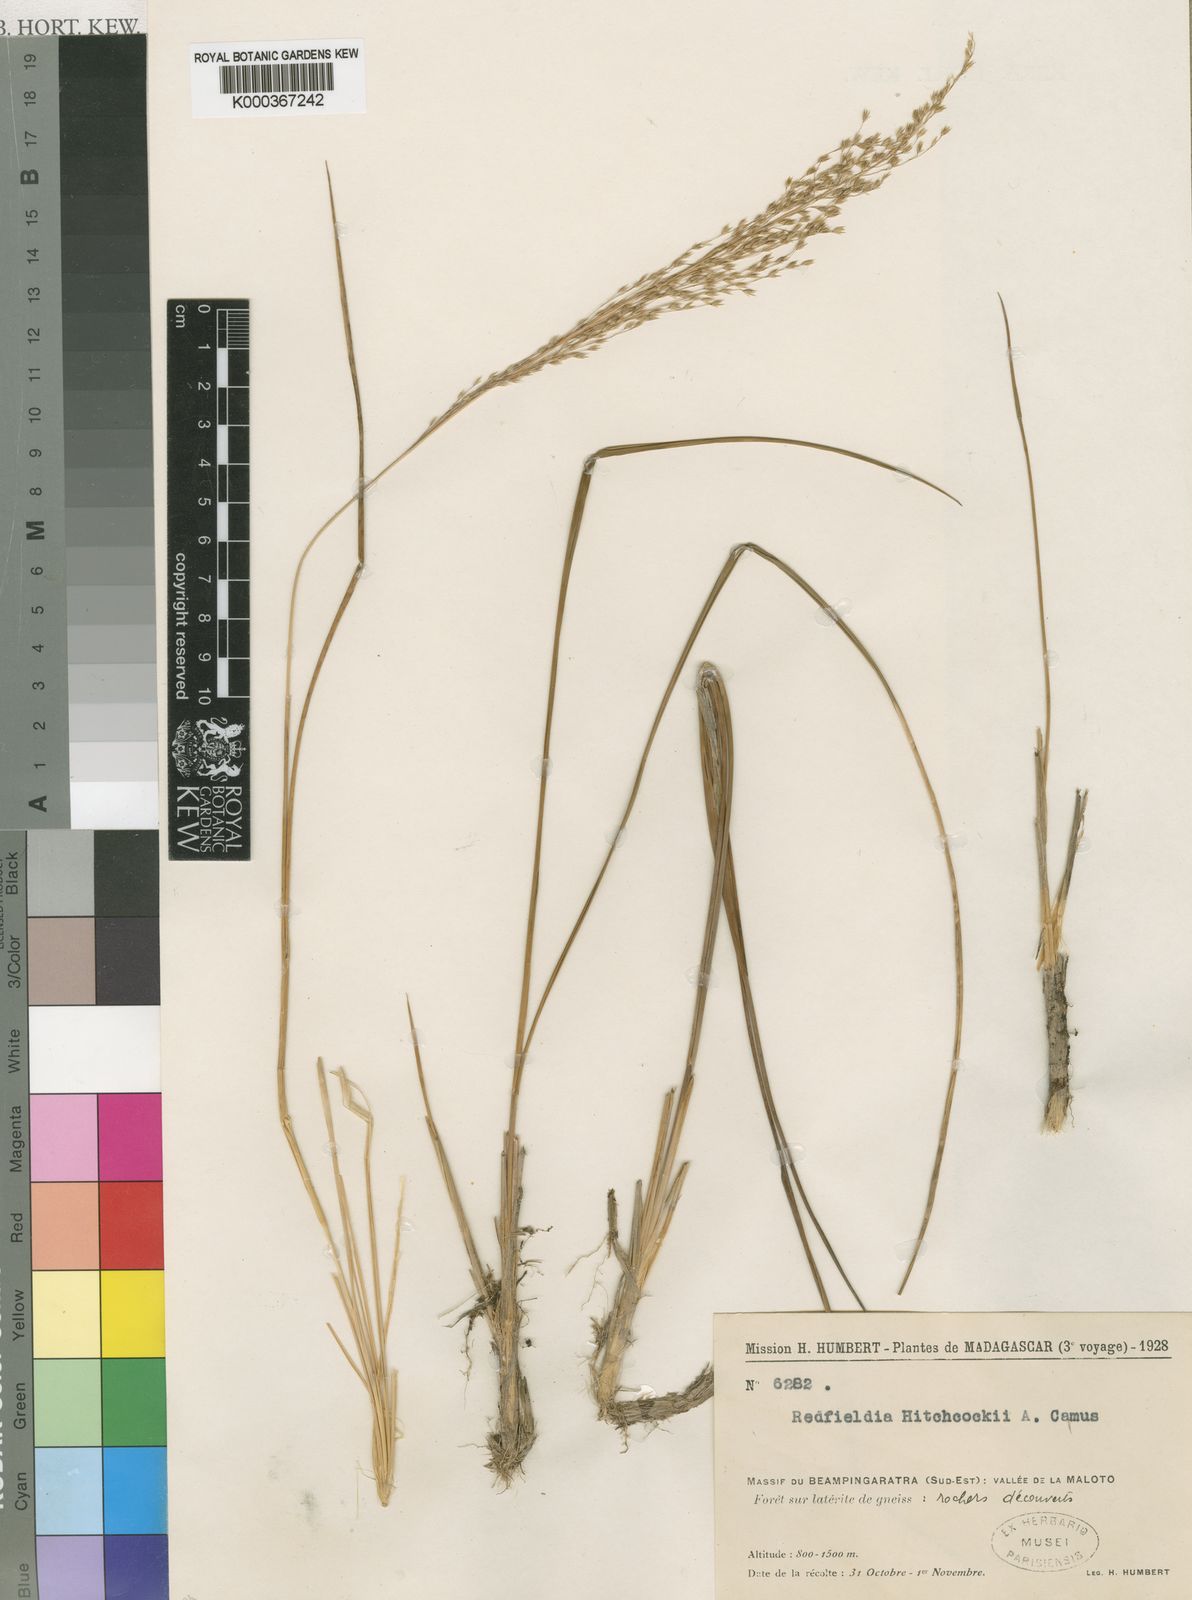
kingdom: Plantae
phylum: Tracheophyta
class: Liliopsida
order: Poales
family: Poaceae
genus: Styppeiochloa
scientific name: Styppeiochloa hitchcockii
